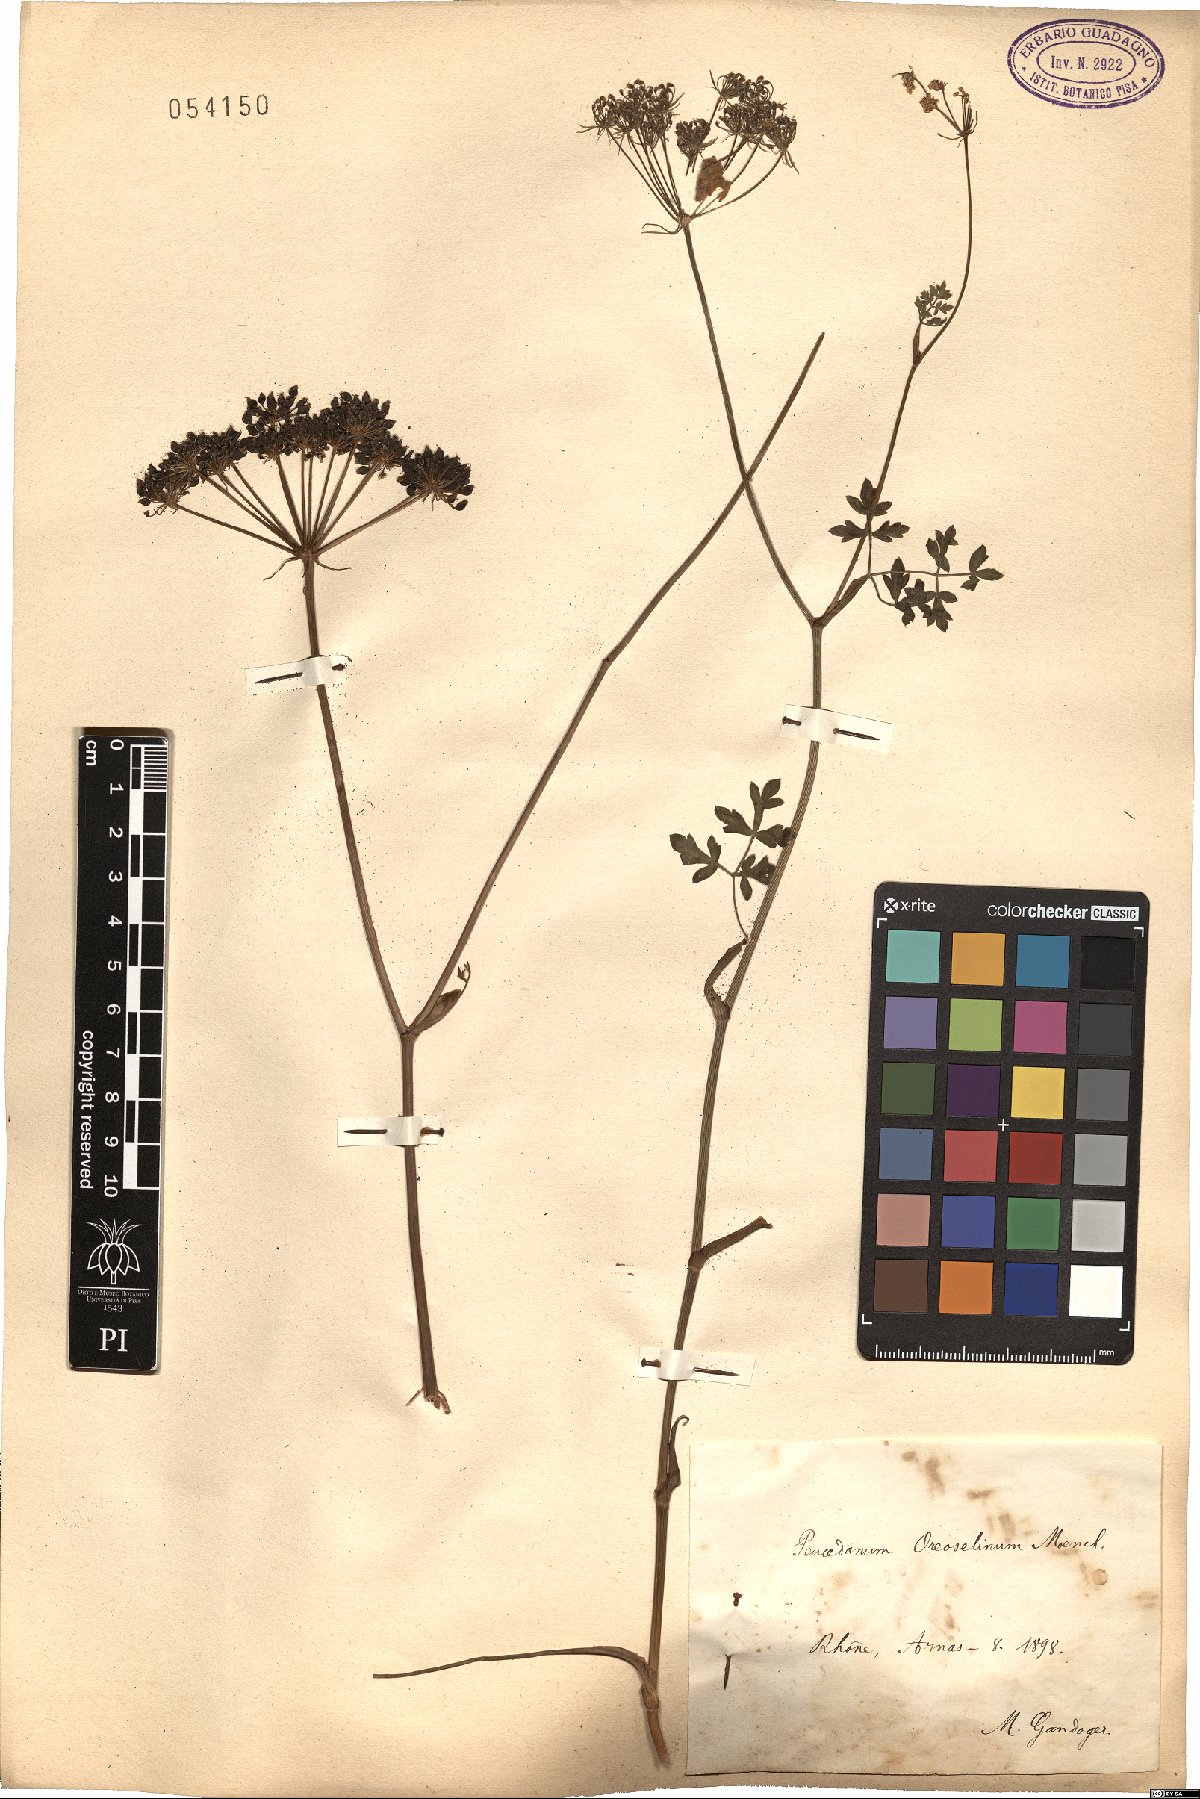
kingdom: Plantae
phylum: Tracheophyta
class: Magnoliopsida
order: Apiales
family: Apiaceae
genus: Oreoselinum
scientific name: Oreoselinum nigrum
